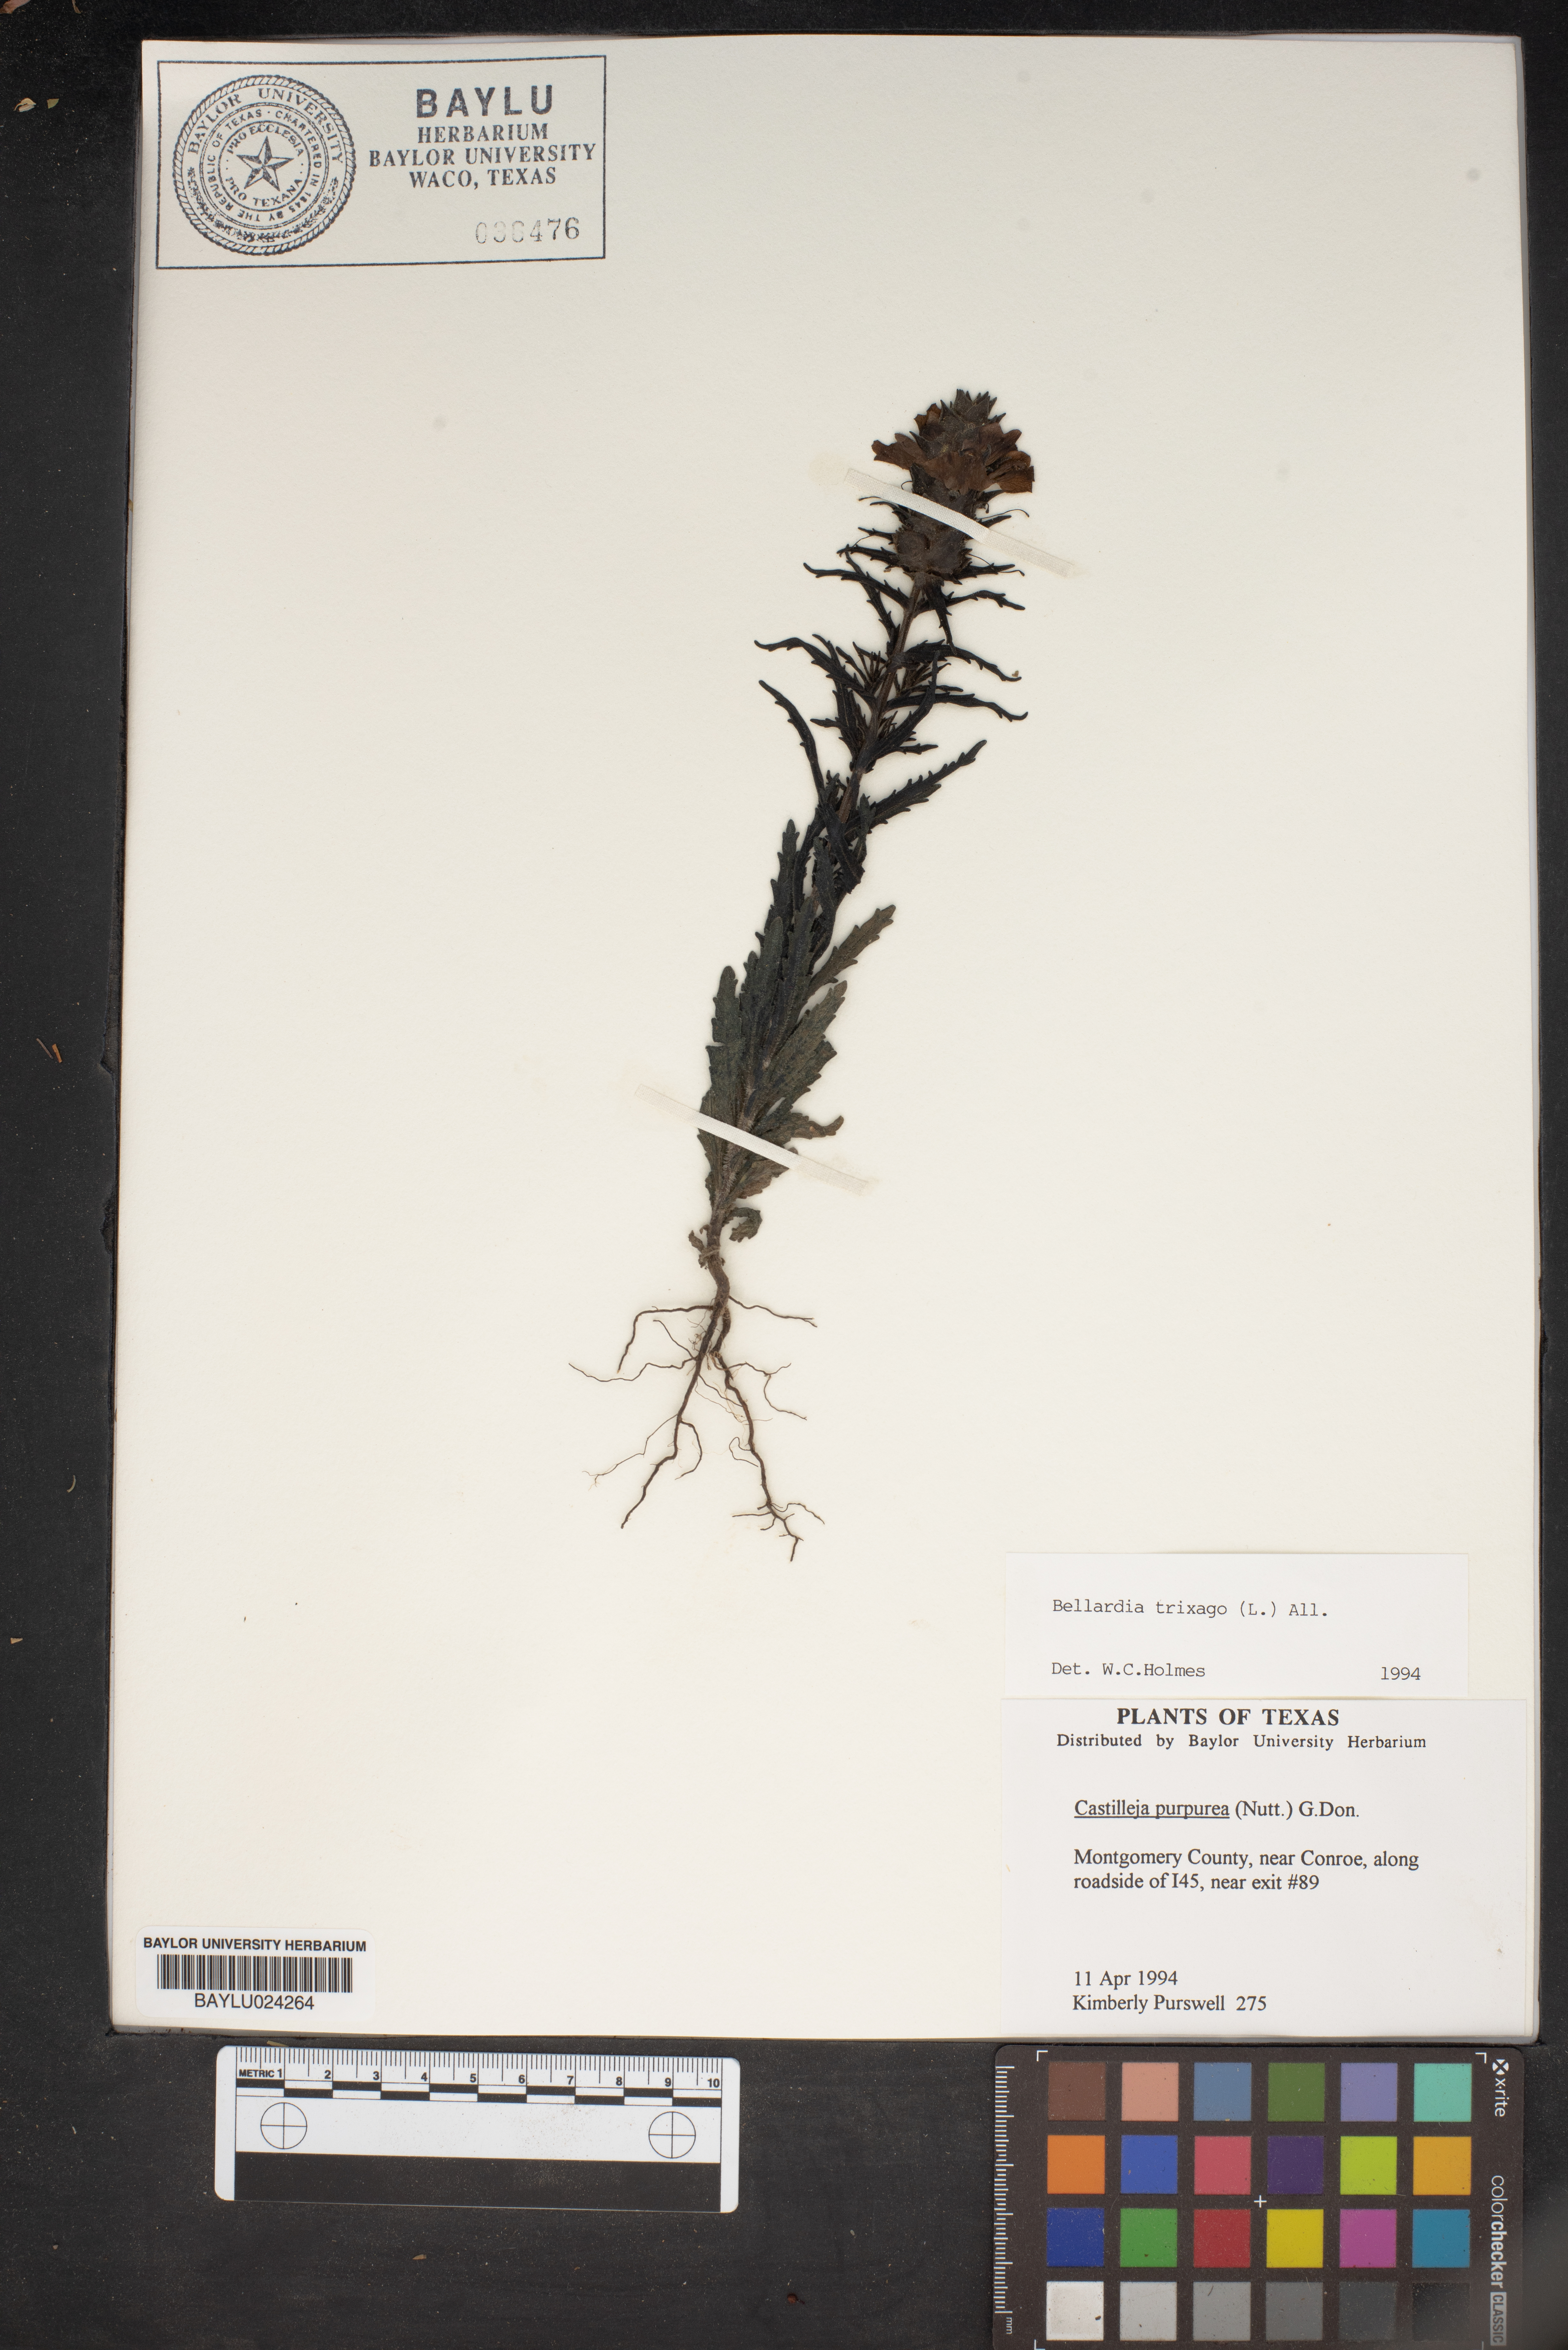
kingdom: Plantae
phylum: Tracheophyta
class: Magnoliopsida
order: Lamiales
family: Orobanchaceae
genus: Bellardia
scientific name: Bellardia trixago
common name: Mediterranean lineseed
